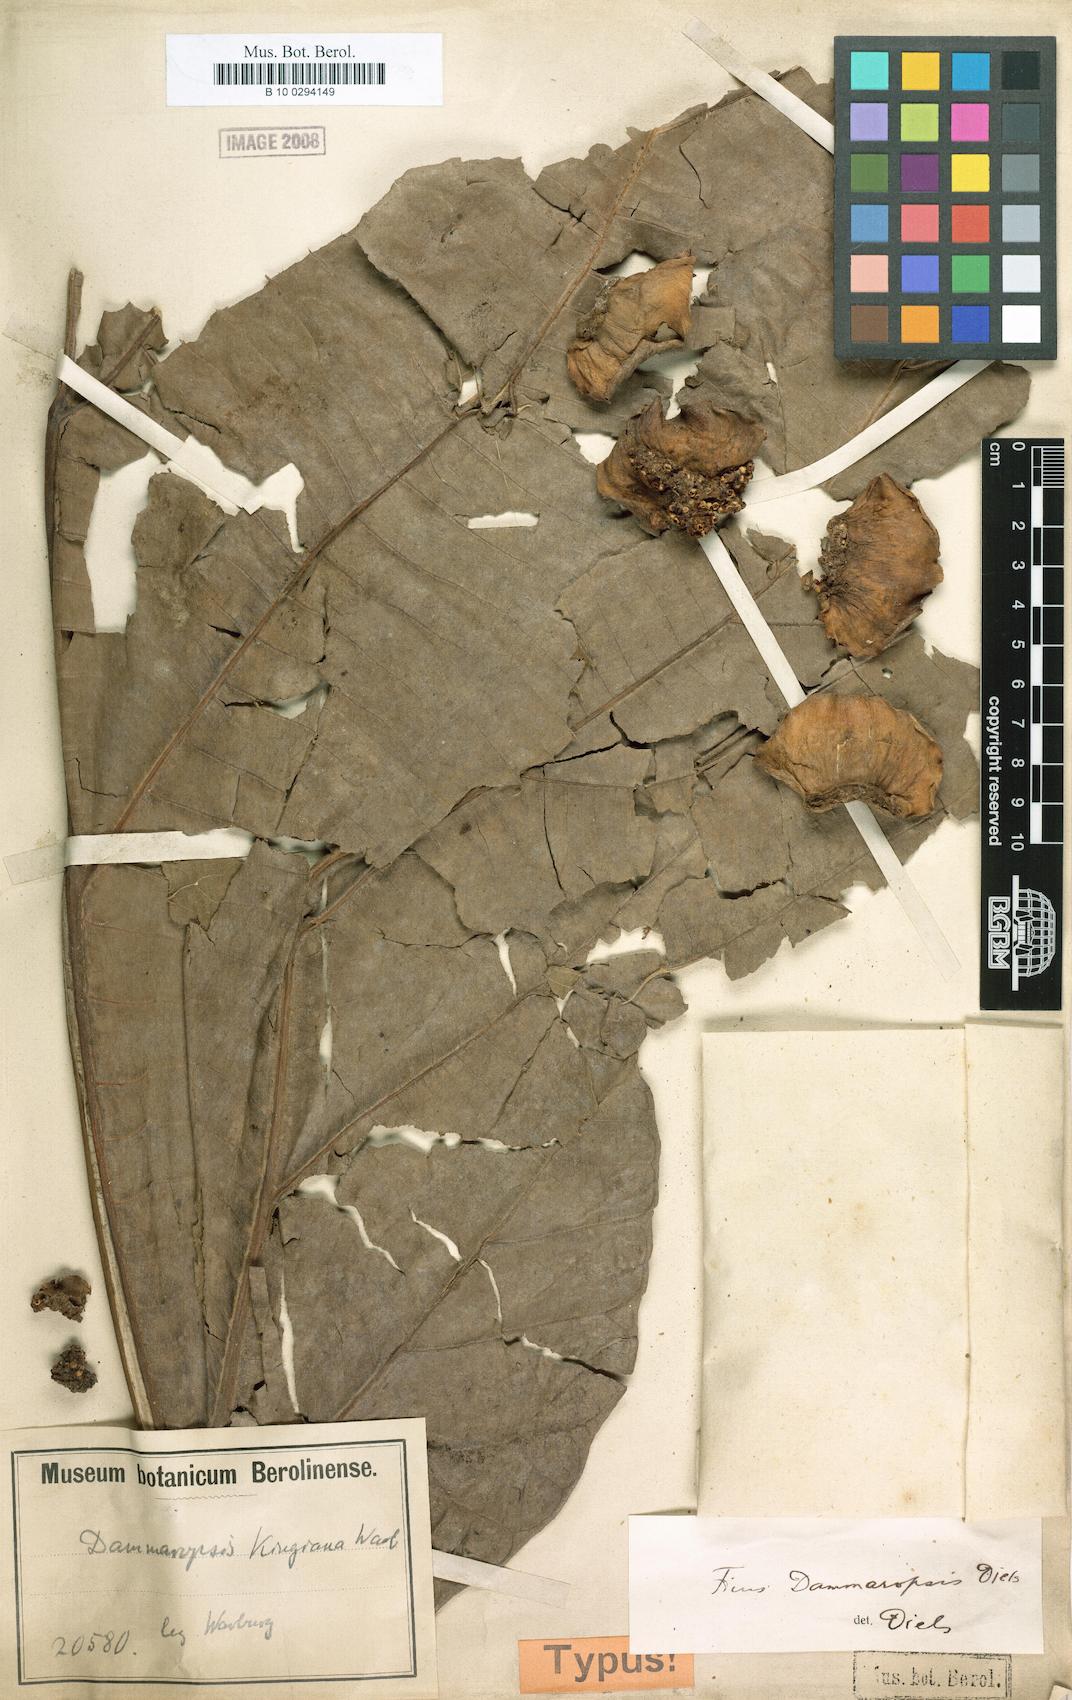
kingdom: Plantae
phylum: Tracheophyta
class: Magnoliopsida
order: Rosales
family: Moraceae
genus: Ficus
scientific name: Ficus dammaropsis
